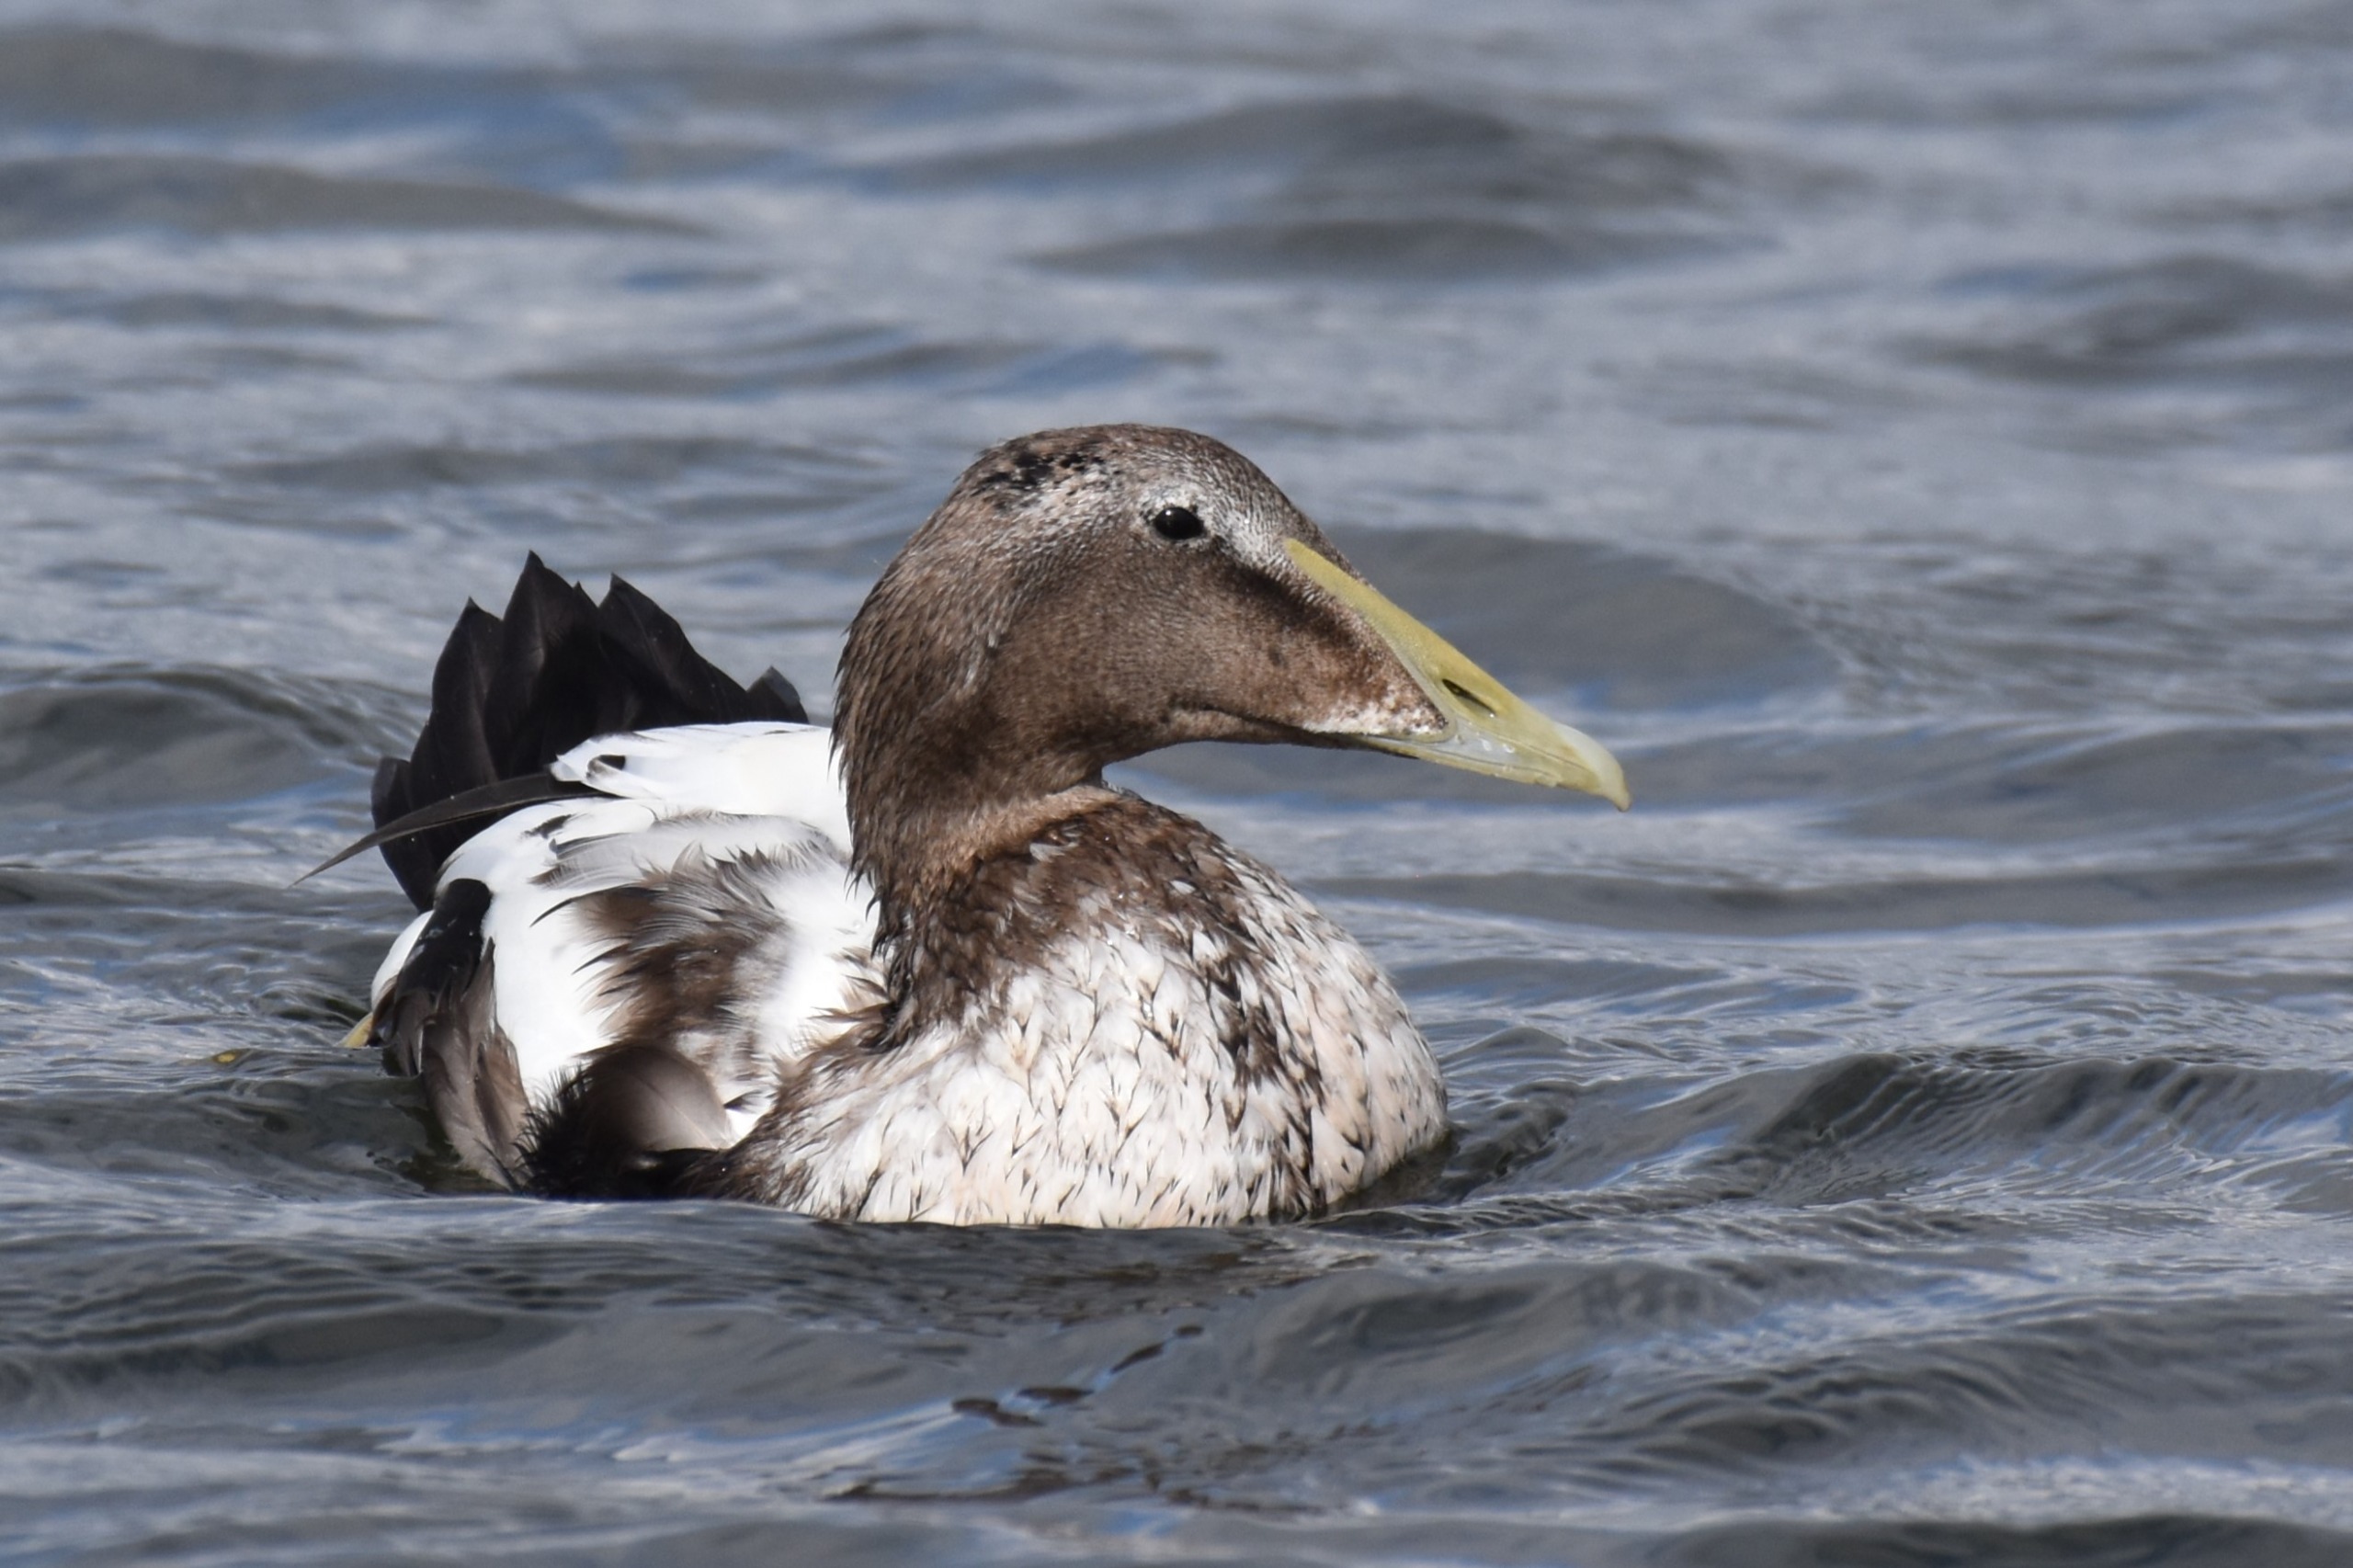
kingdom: Animalia
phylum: Chordata
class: Aves
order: Anseriformes
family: Anatidae
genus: Somateria
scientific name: Somateria mollissima
